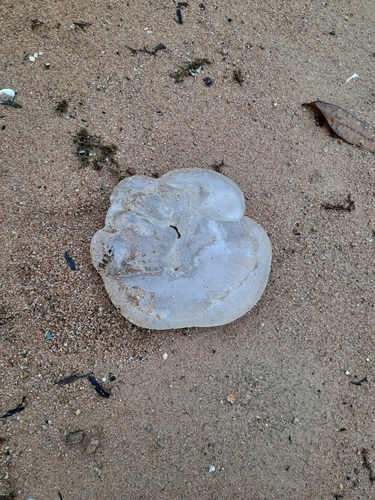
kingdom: Animalia
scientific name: Animalia
